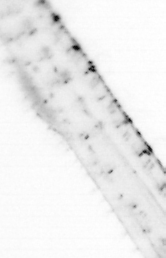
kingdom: Animalia
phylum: Chordata
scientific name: Chordata
